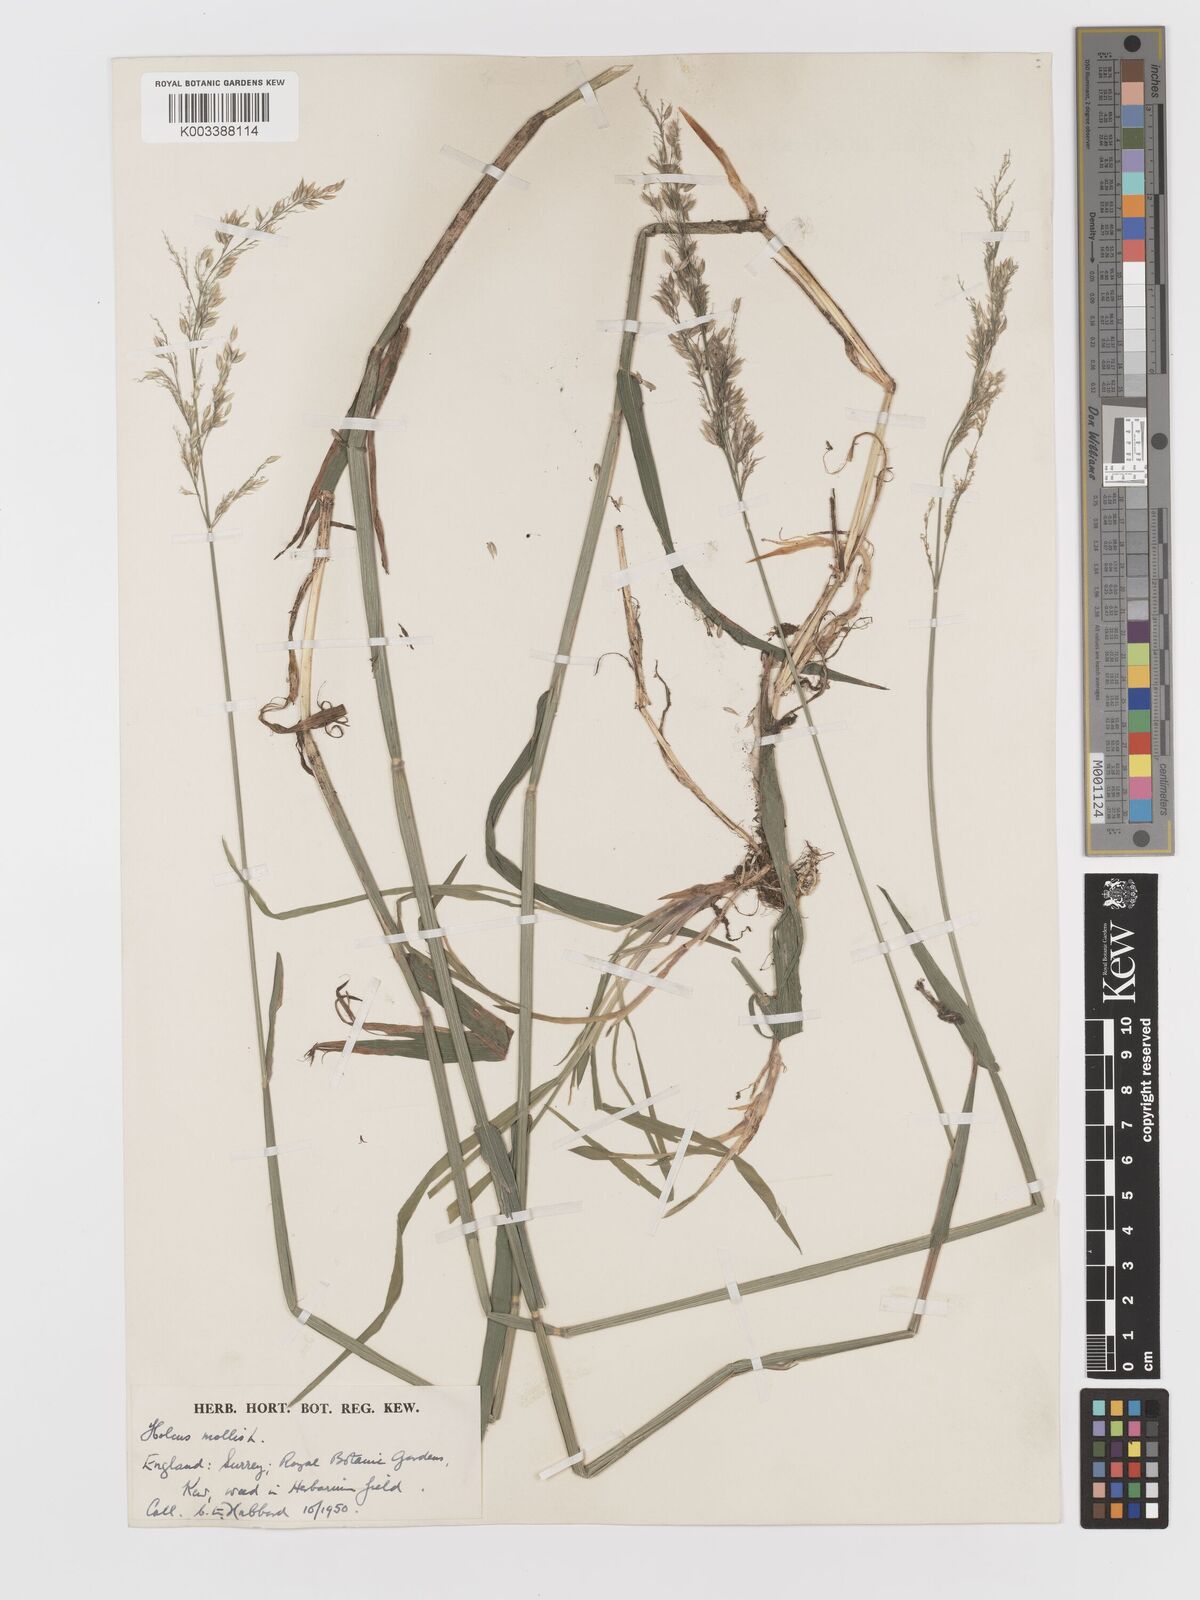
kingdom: Plantae
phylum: Tracheophyta
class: Liliopsida
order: Poales
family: Poaceae
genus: Holcus
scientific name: Holcus mollis
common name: Creeping velvetgrass
